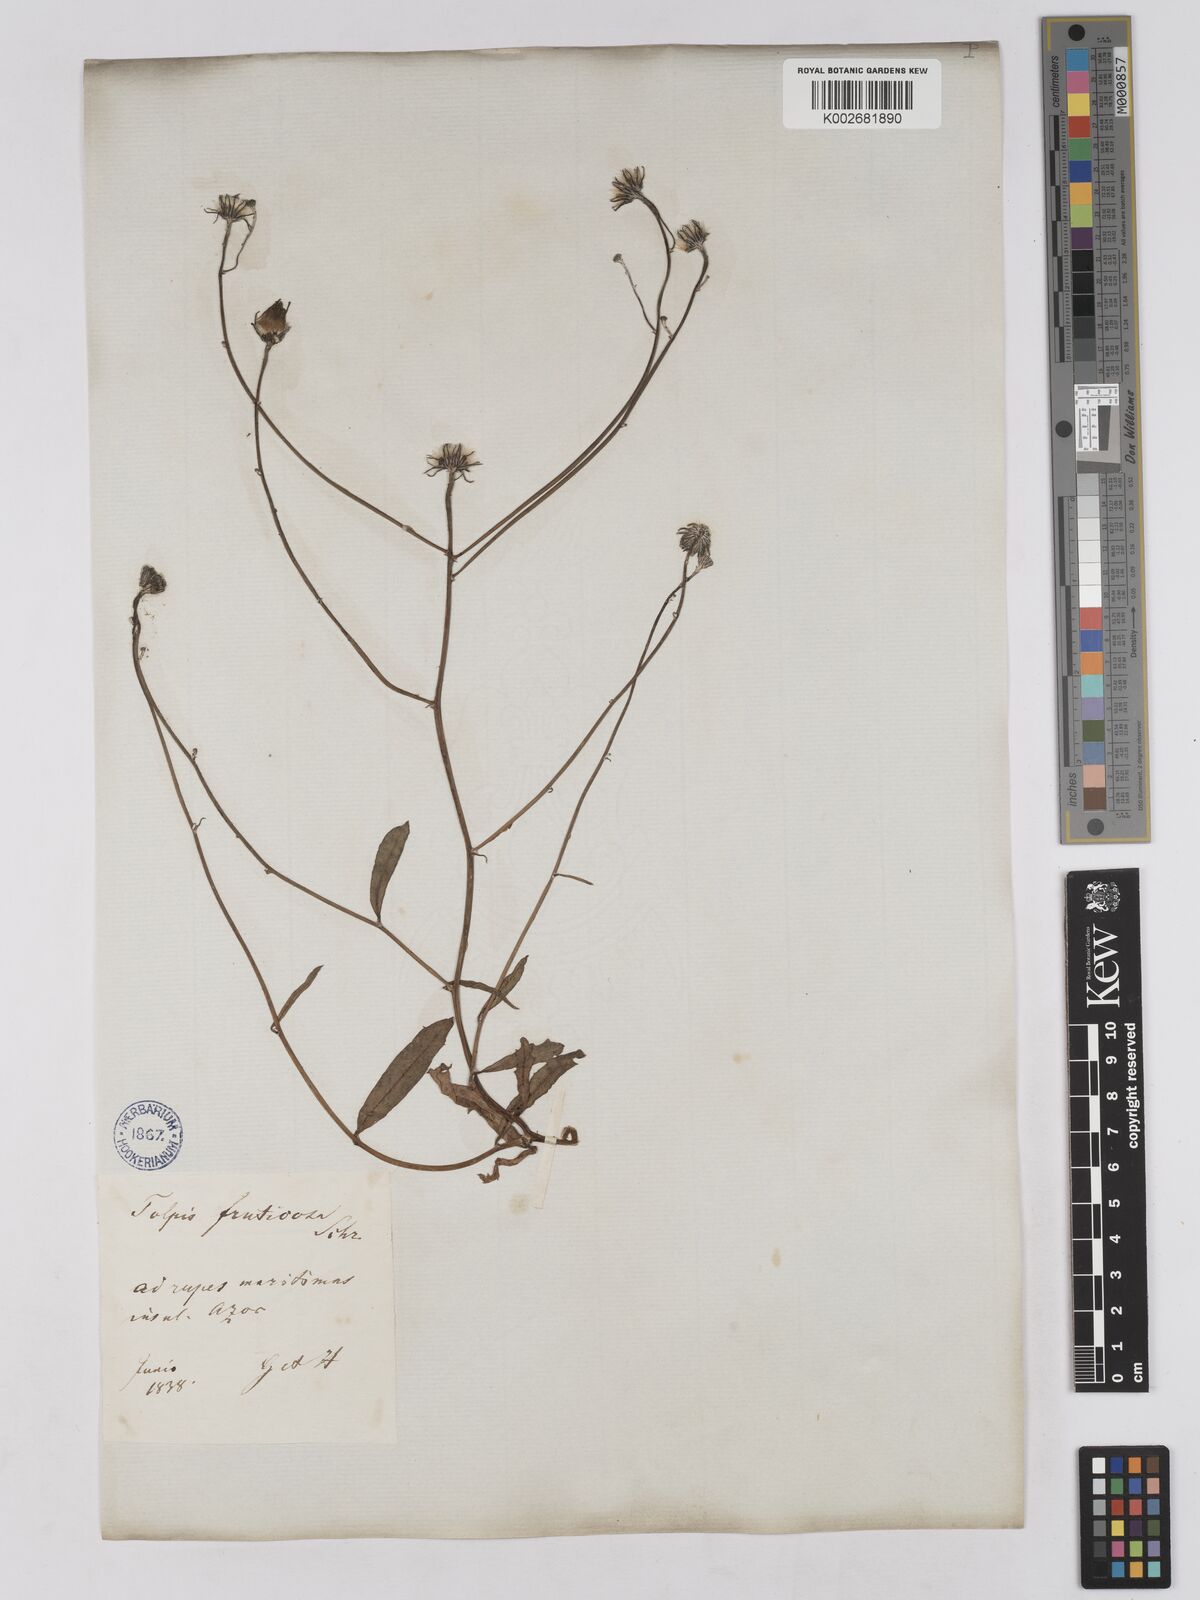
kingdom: Plantae
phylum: Tracheophyta
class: Magnoliopsida
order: Asterales
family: Asteraceae
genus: Tolpis
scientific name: Tolpis succulenta
